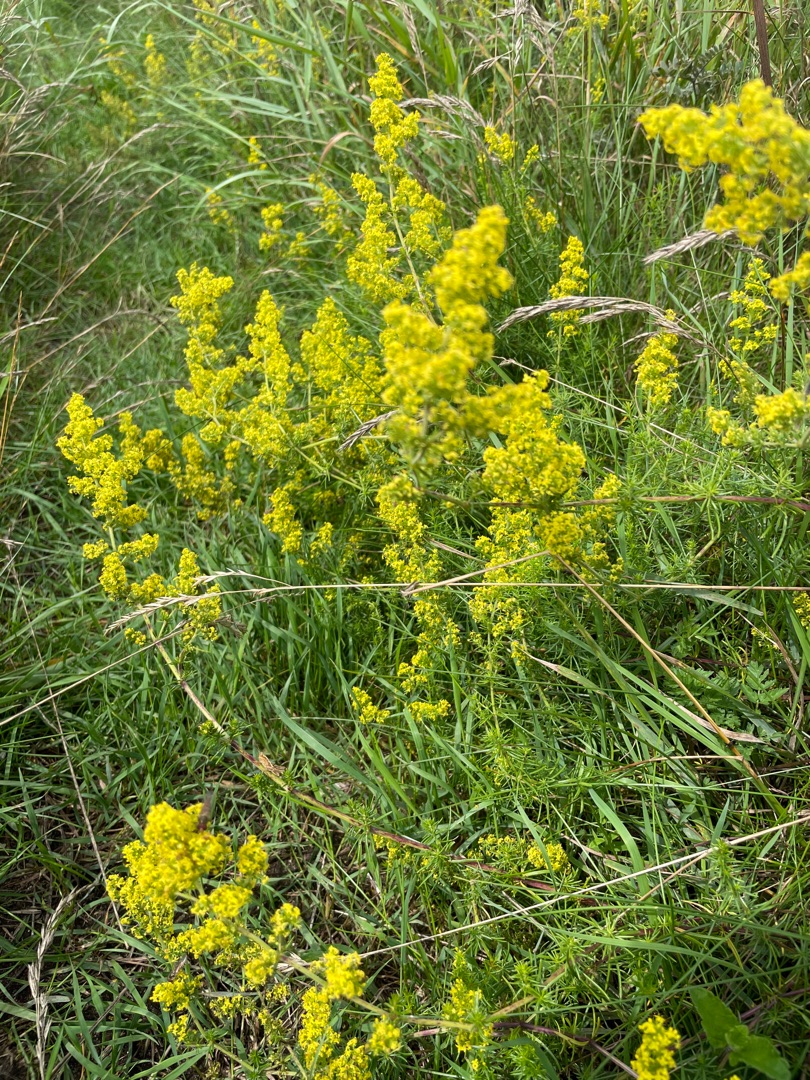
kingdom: Plantae
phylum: Tracheophyta
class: Magnoliopsida
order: Gentianales
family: Rubiaceae
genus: Galium
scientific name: Galium verum
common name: Gul snerre
